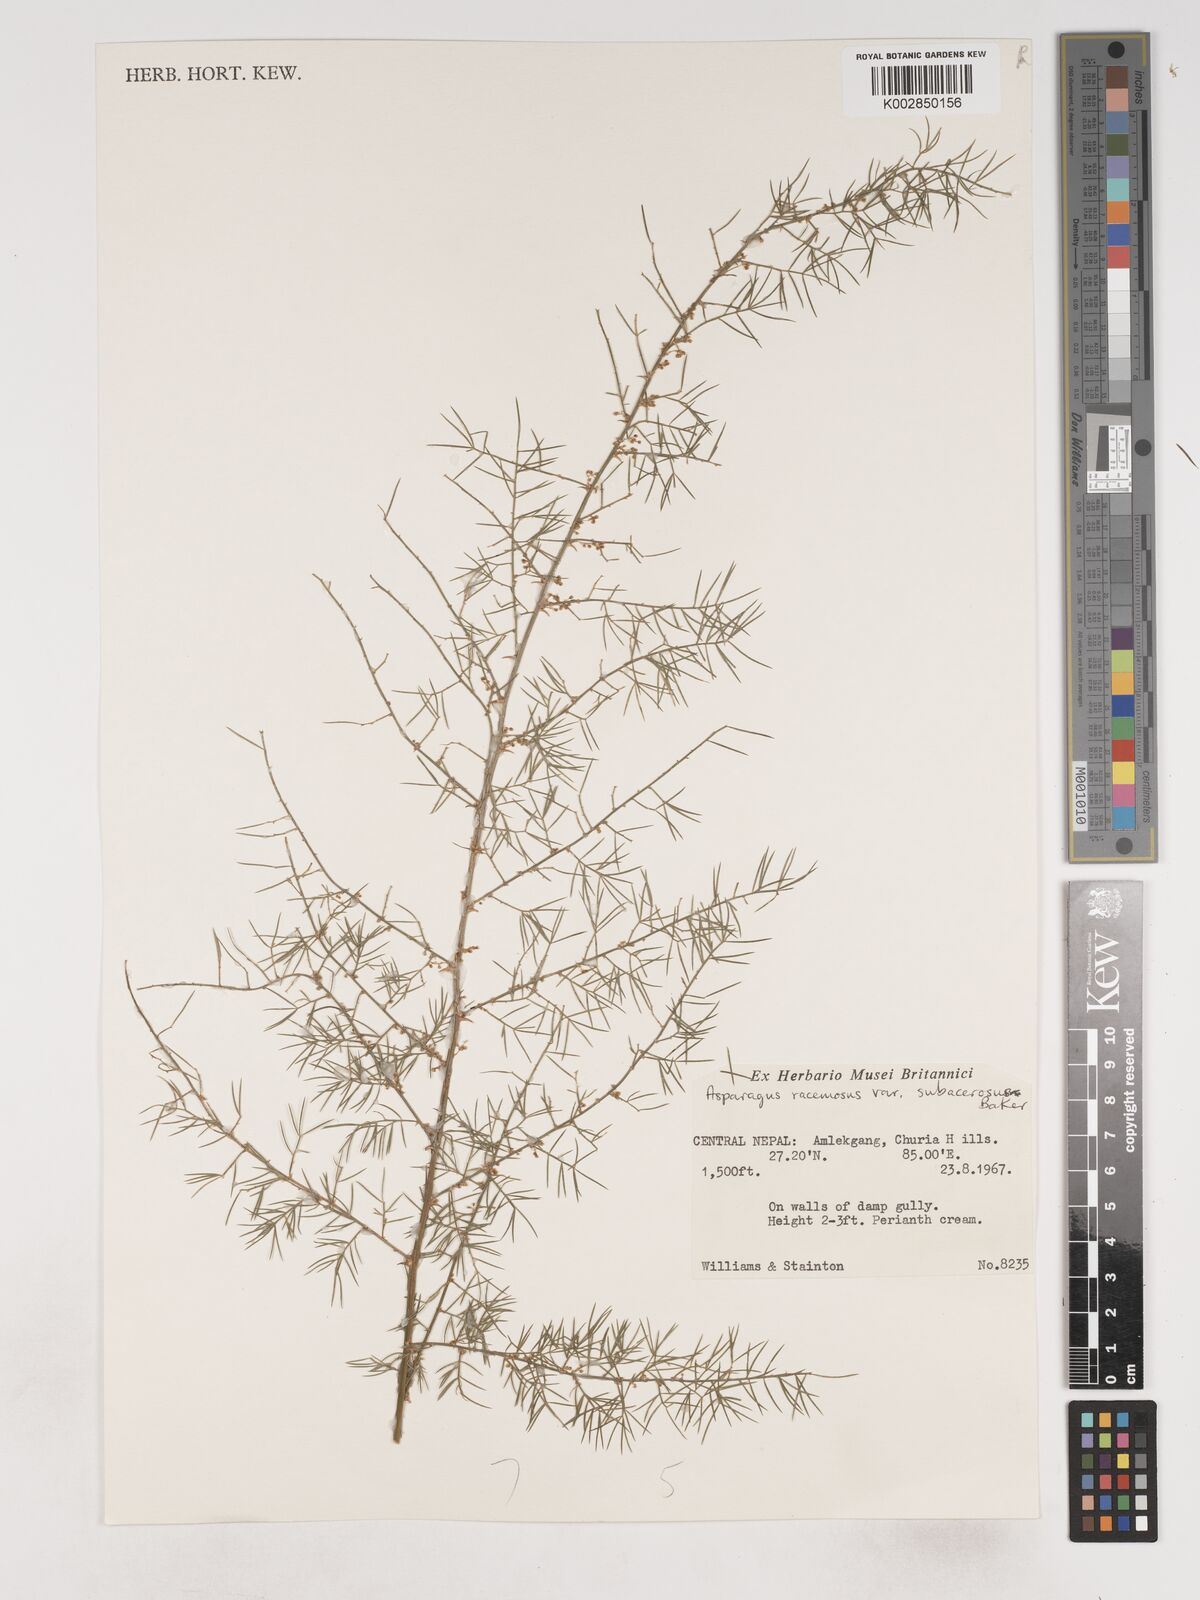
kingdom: Plantae
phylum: Tracheophyta
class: Liliopsida
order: Asparagales
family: Asparagaceae
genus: Asparagus
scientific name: Asparagus racemosus
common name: Asparagus-fern
